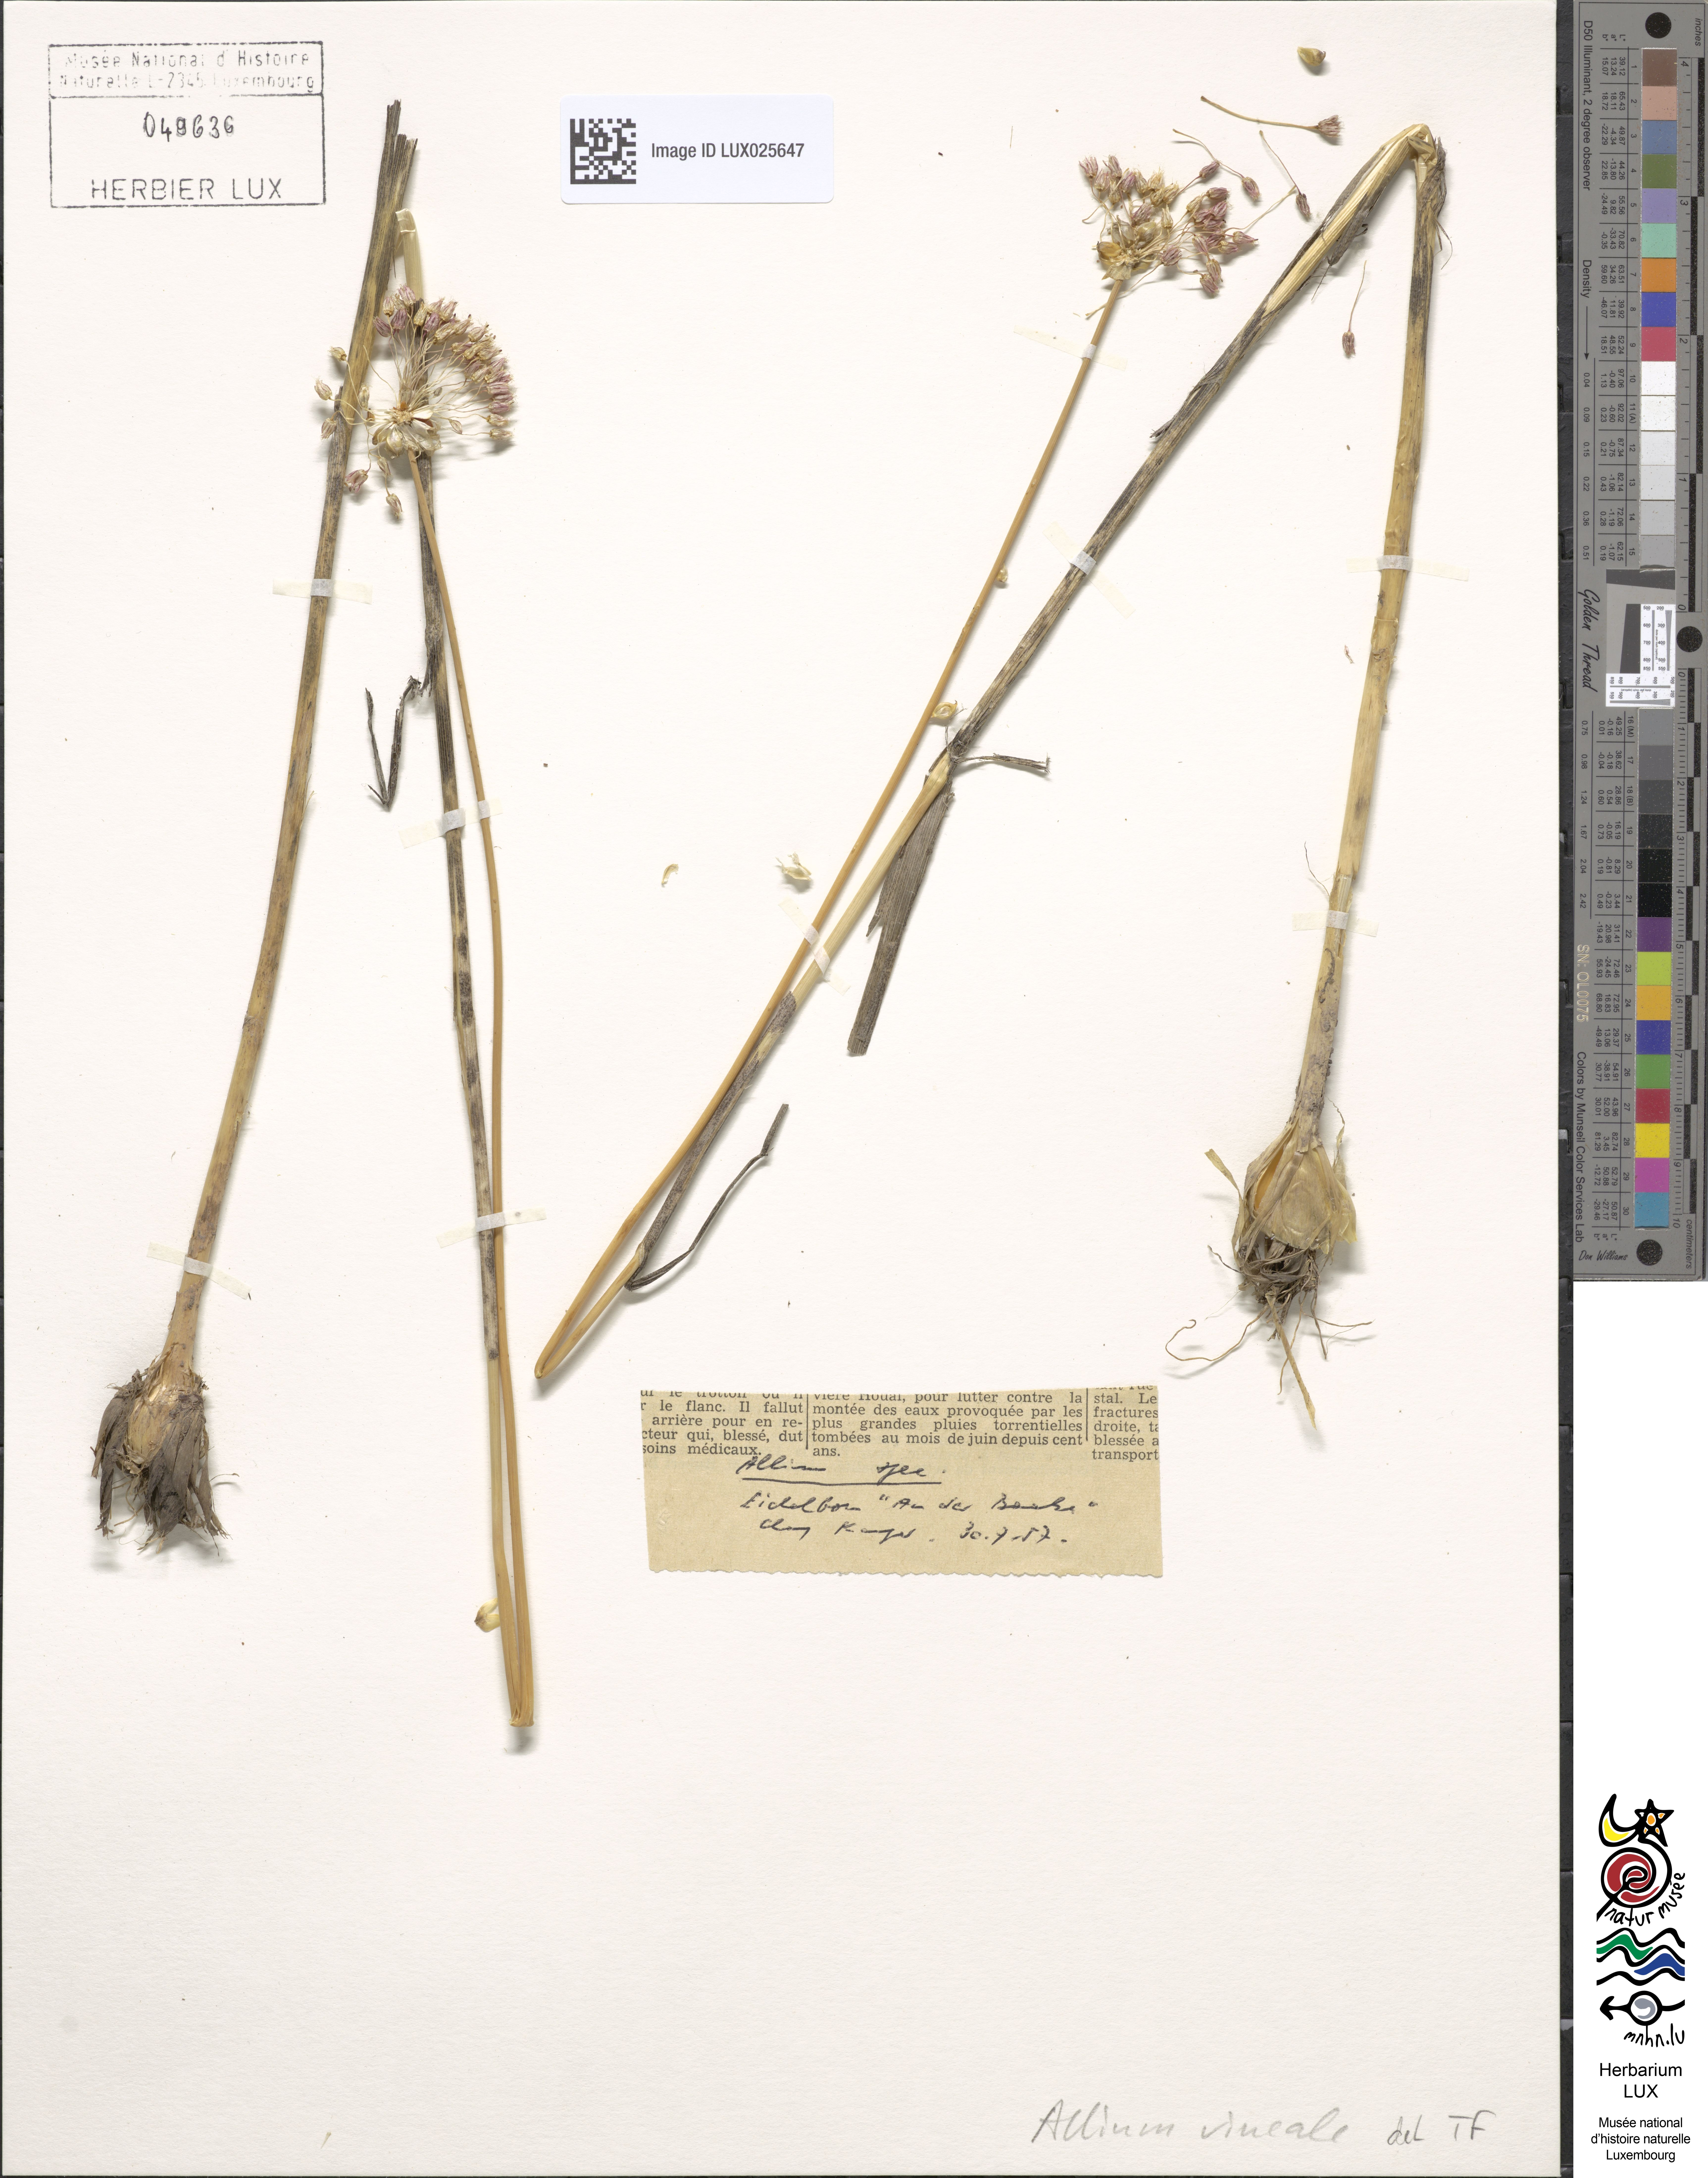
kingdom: Plantae
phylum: Tracheophyta
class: Liliopsida
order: Asparagales
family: Amaryllidaceae
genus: Allium
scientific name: Allium vineale
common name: Crow garlic
